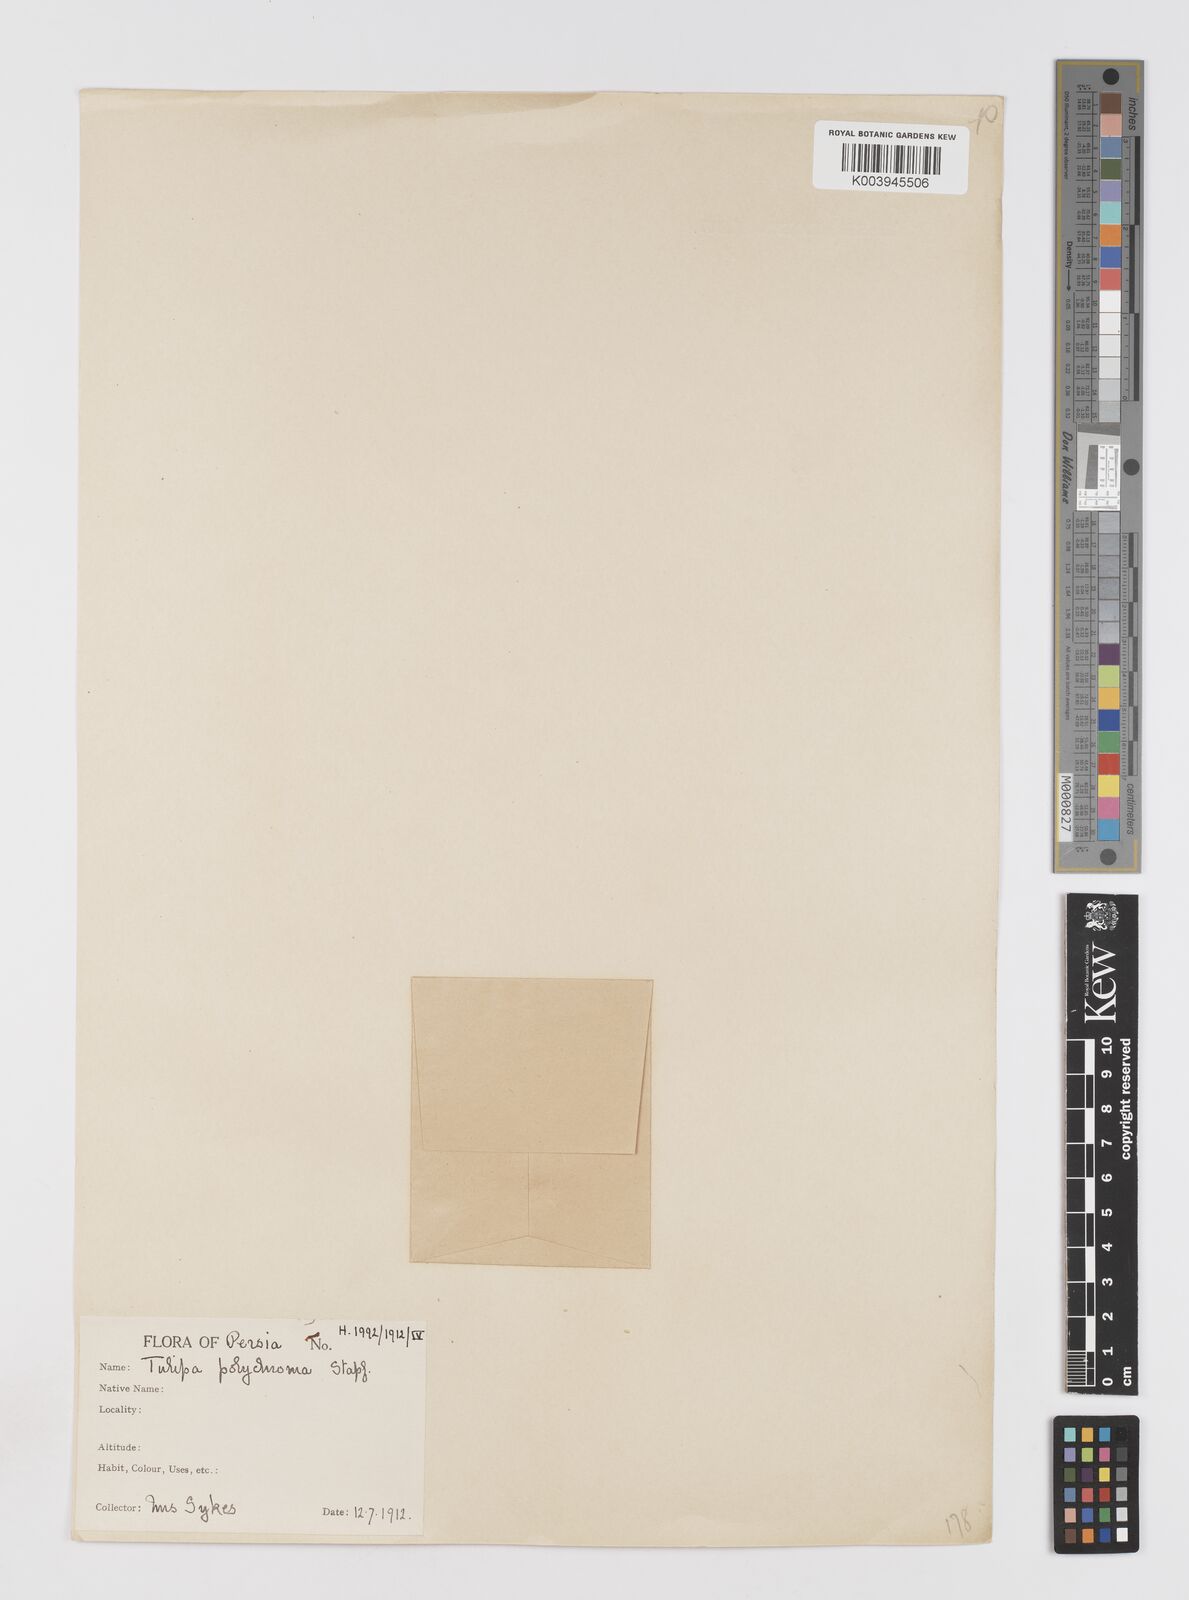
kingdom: Plantae
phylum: Tracheophyta
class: Liliopsida
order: Liliales
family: Liliaceae
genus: Tulipa
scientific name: Tulipa biflora
